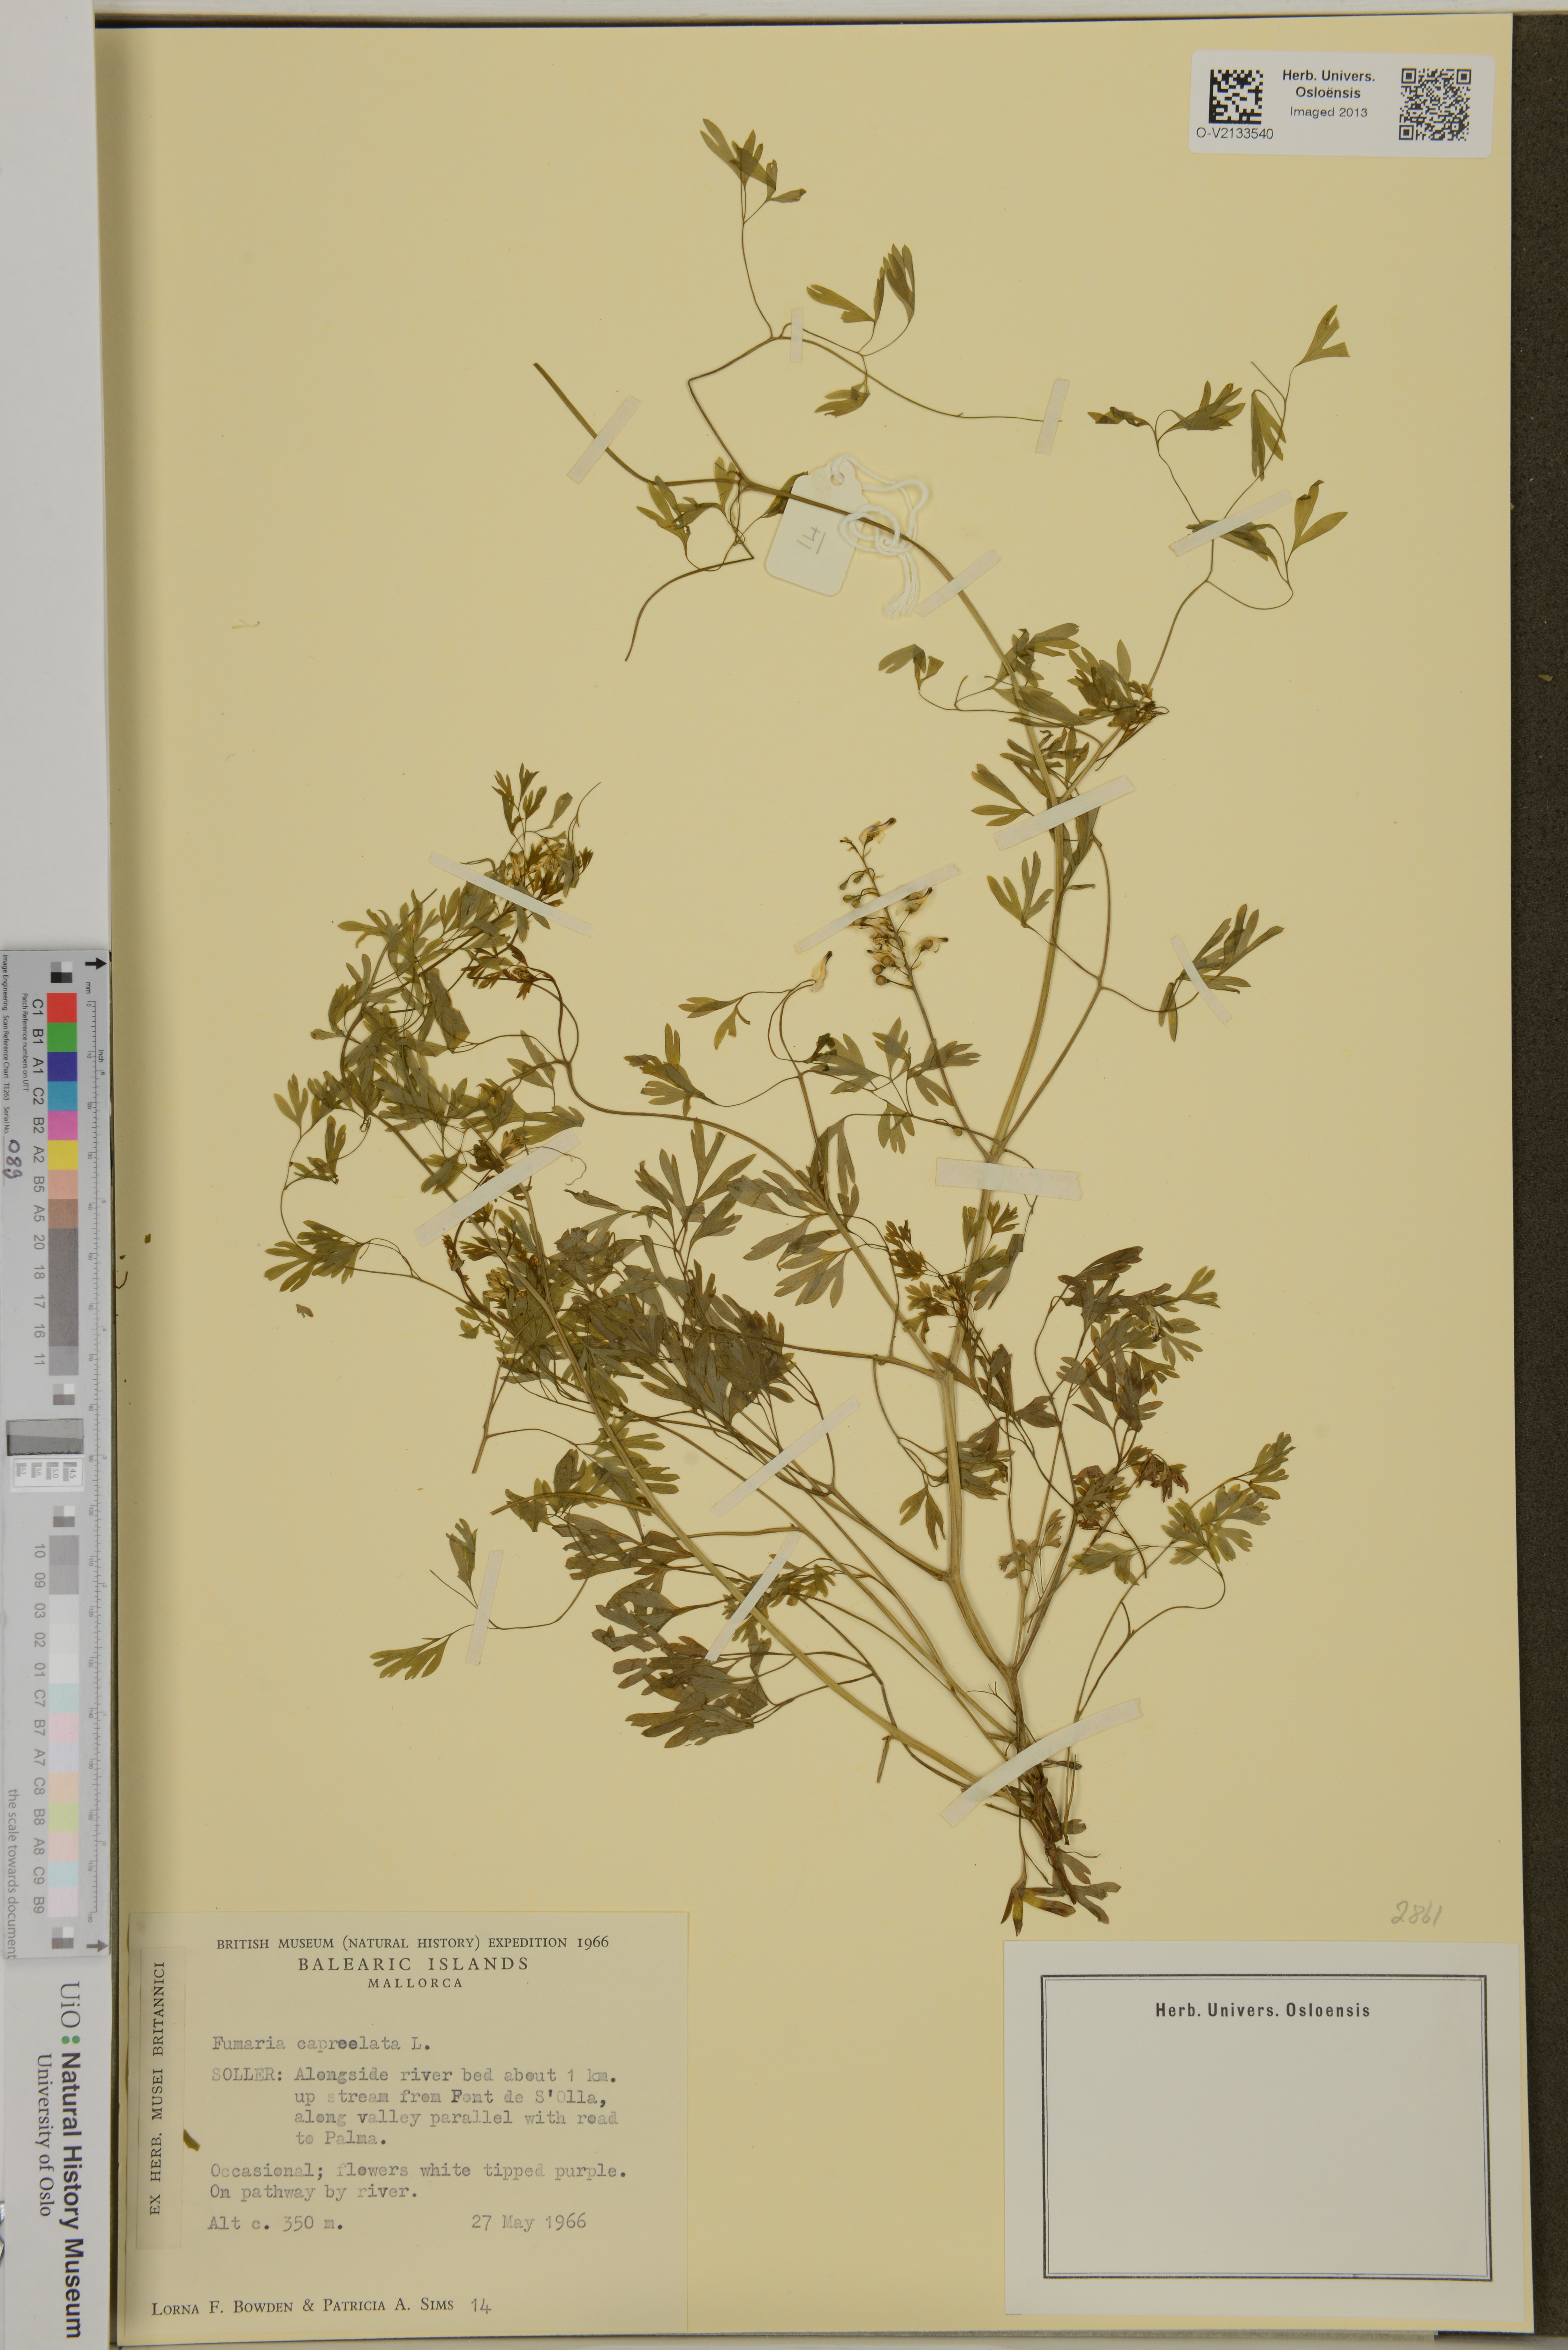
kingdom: Plantae
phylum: Tracheophyta
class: Magnoliopsida
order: Ranunculales
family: Papaveraceae
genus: Fumaria
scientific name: Fumaria capreolata
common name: White ramping-fumitory
